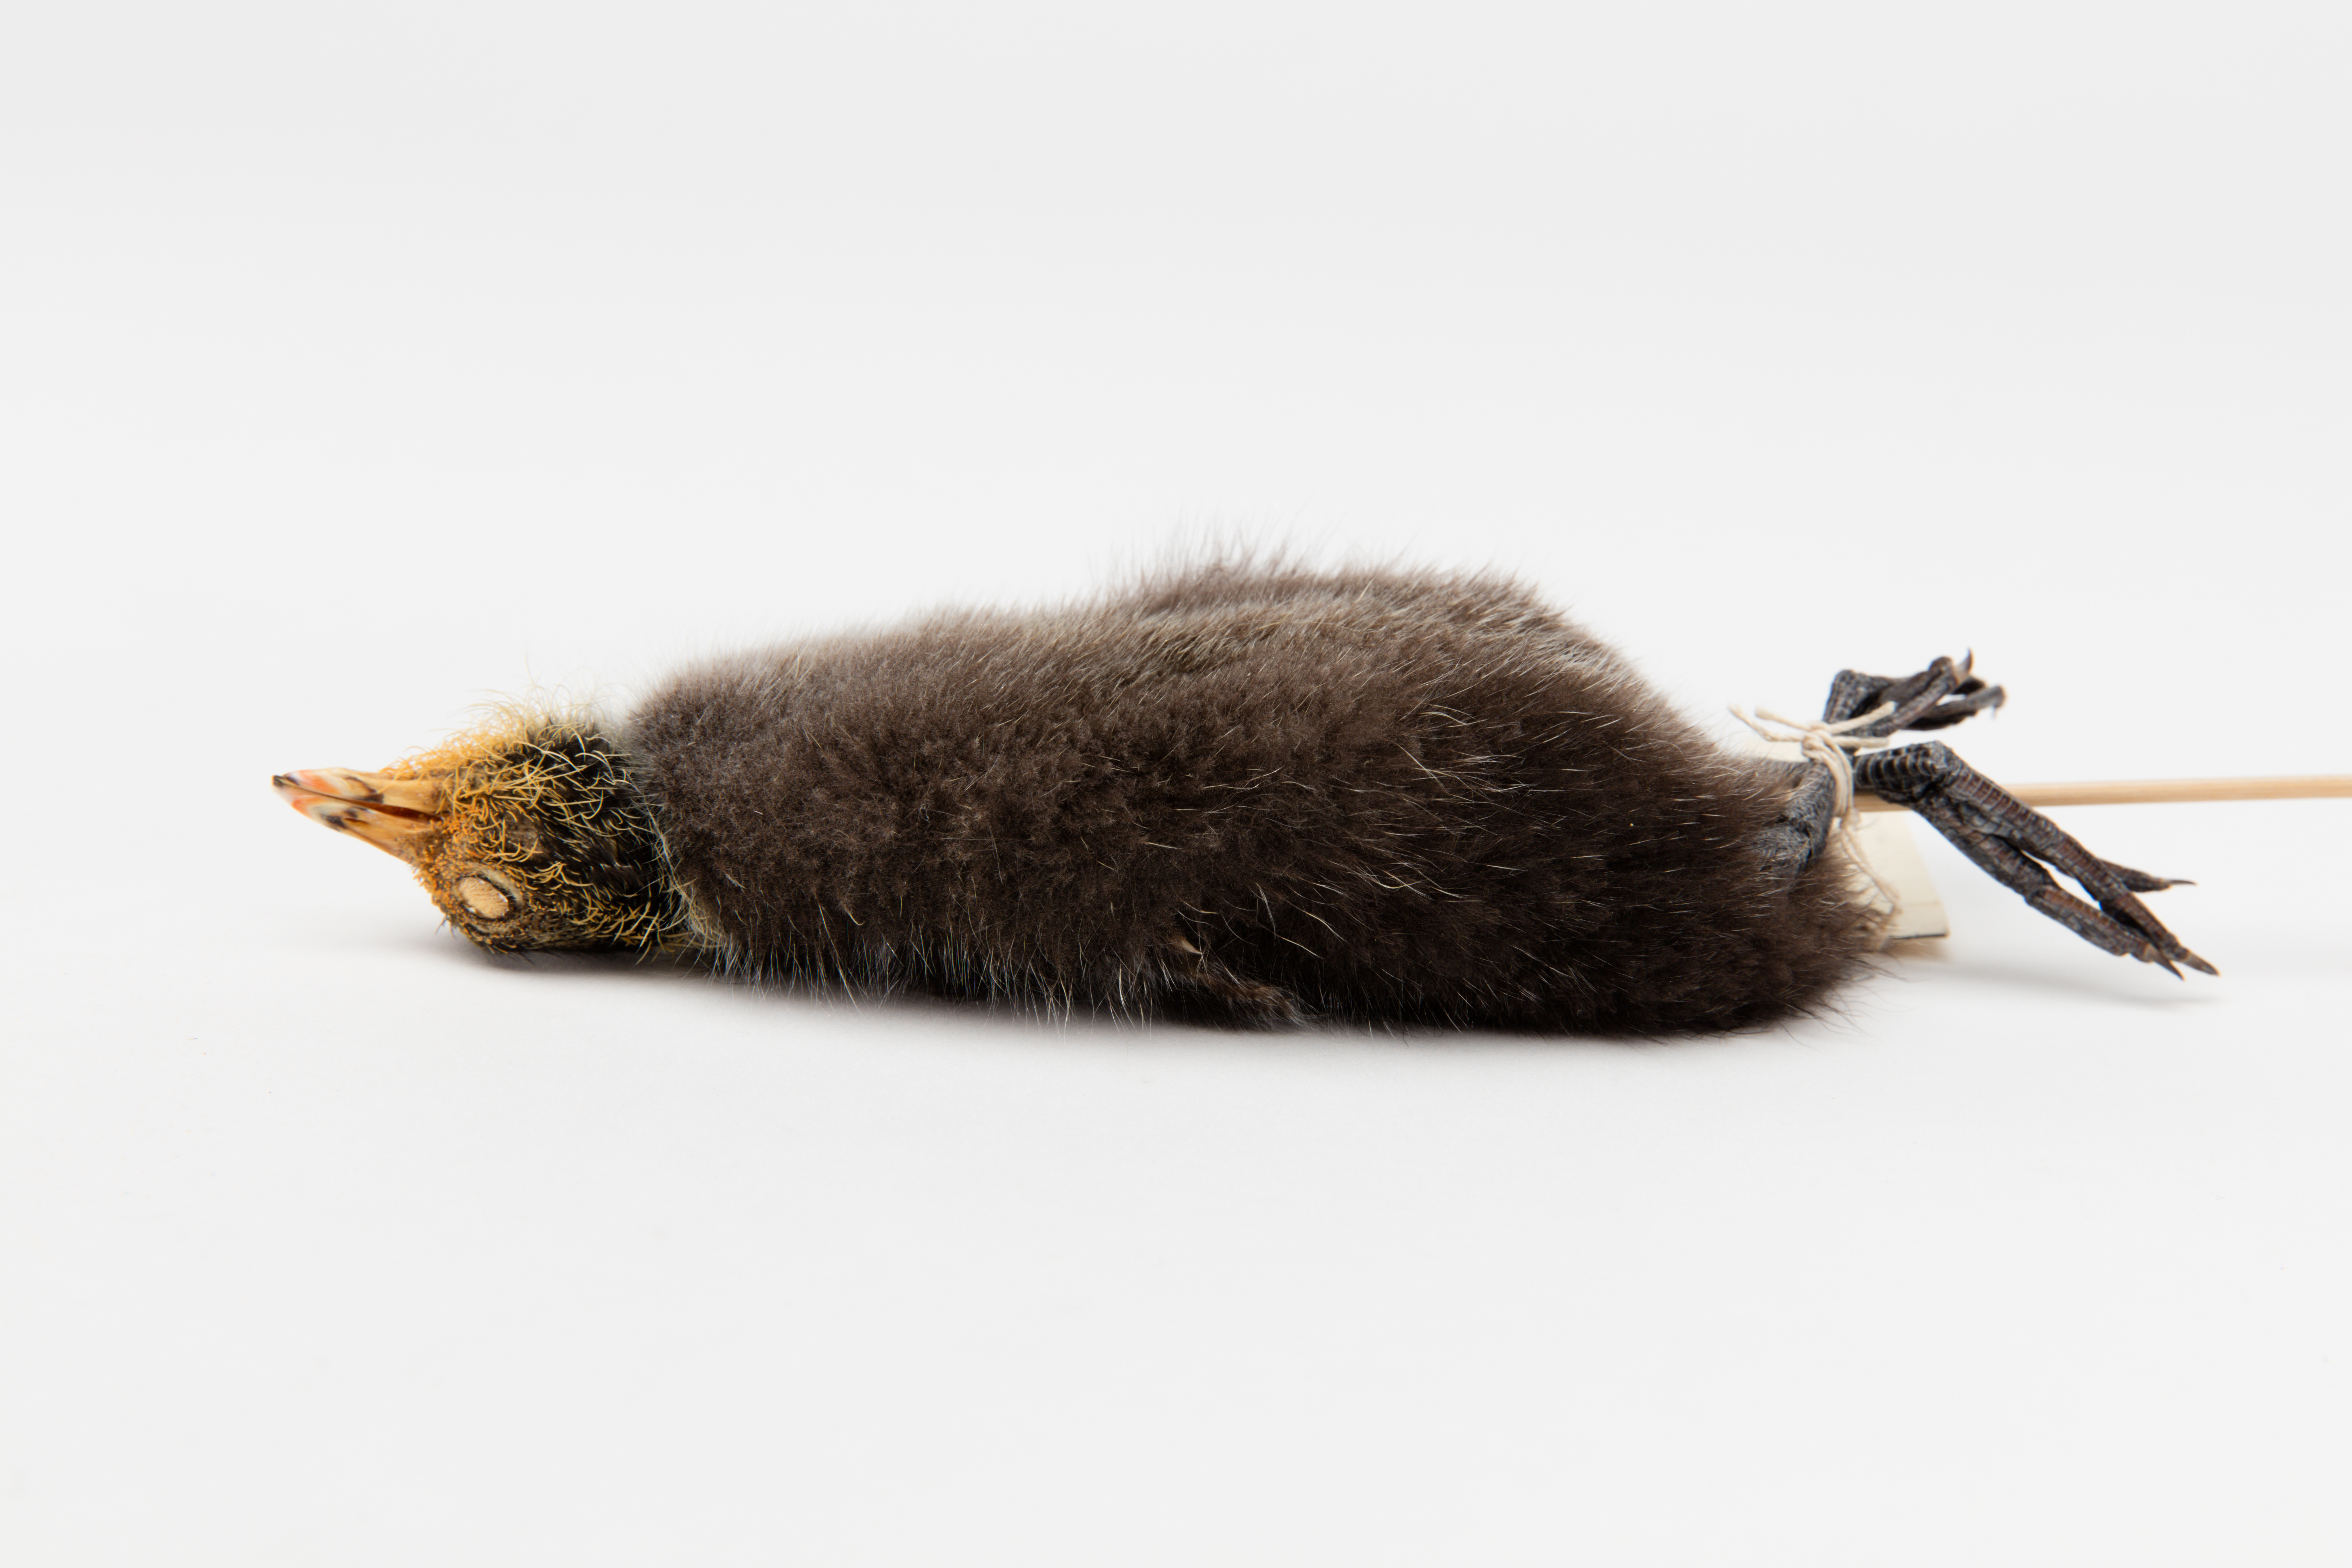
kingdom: Animalia
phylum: Chordata
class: Aves
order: Gruiformes
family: Rallidae
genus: Fulica
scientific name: Fulica atra
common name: Eurasian coot
